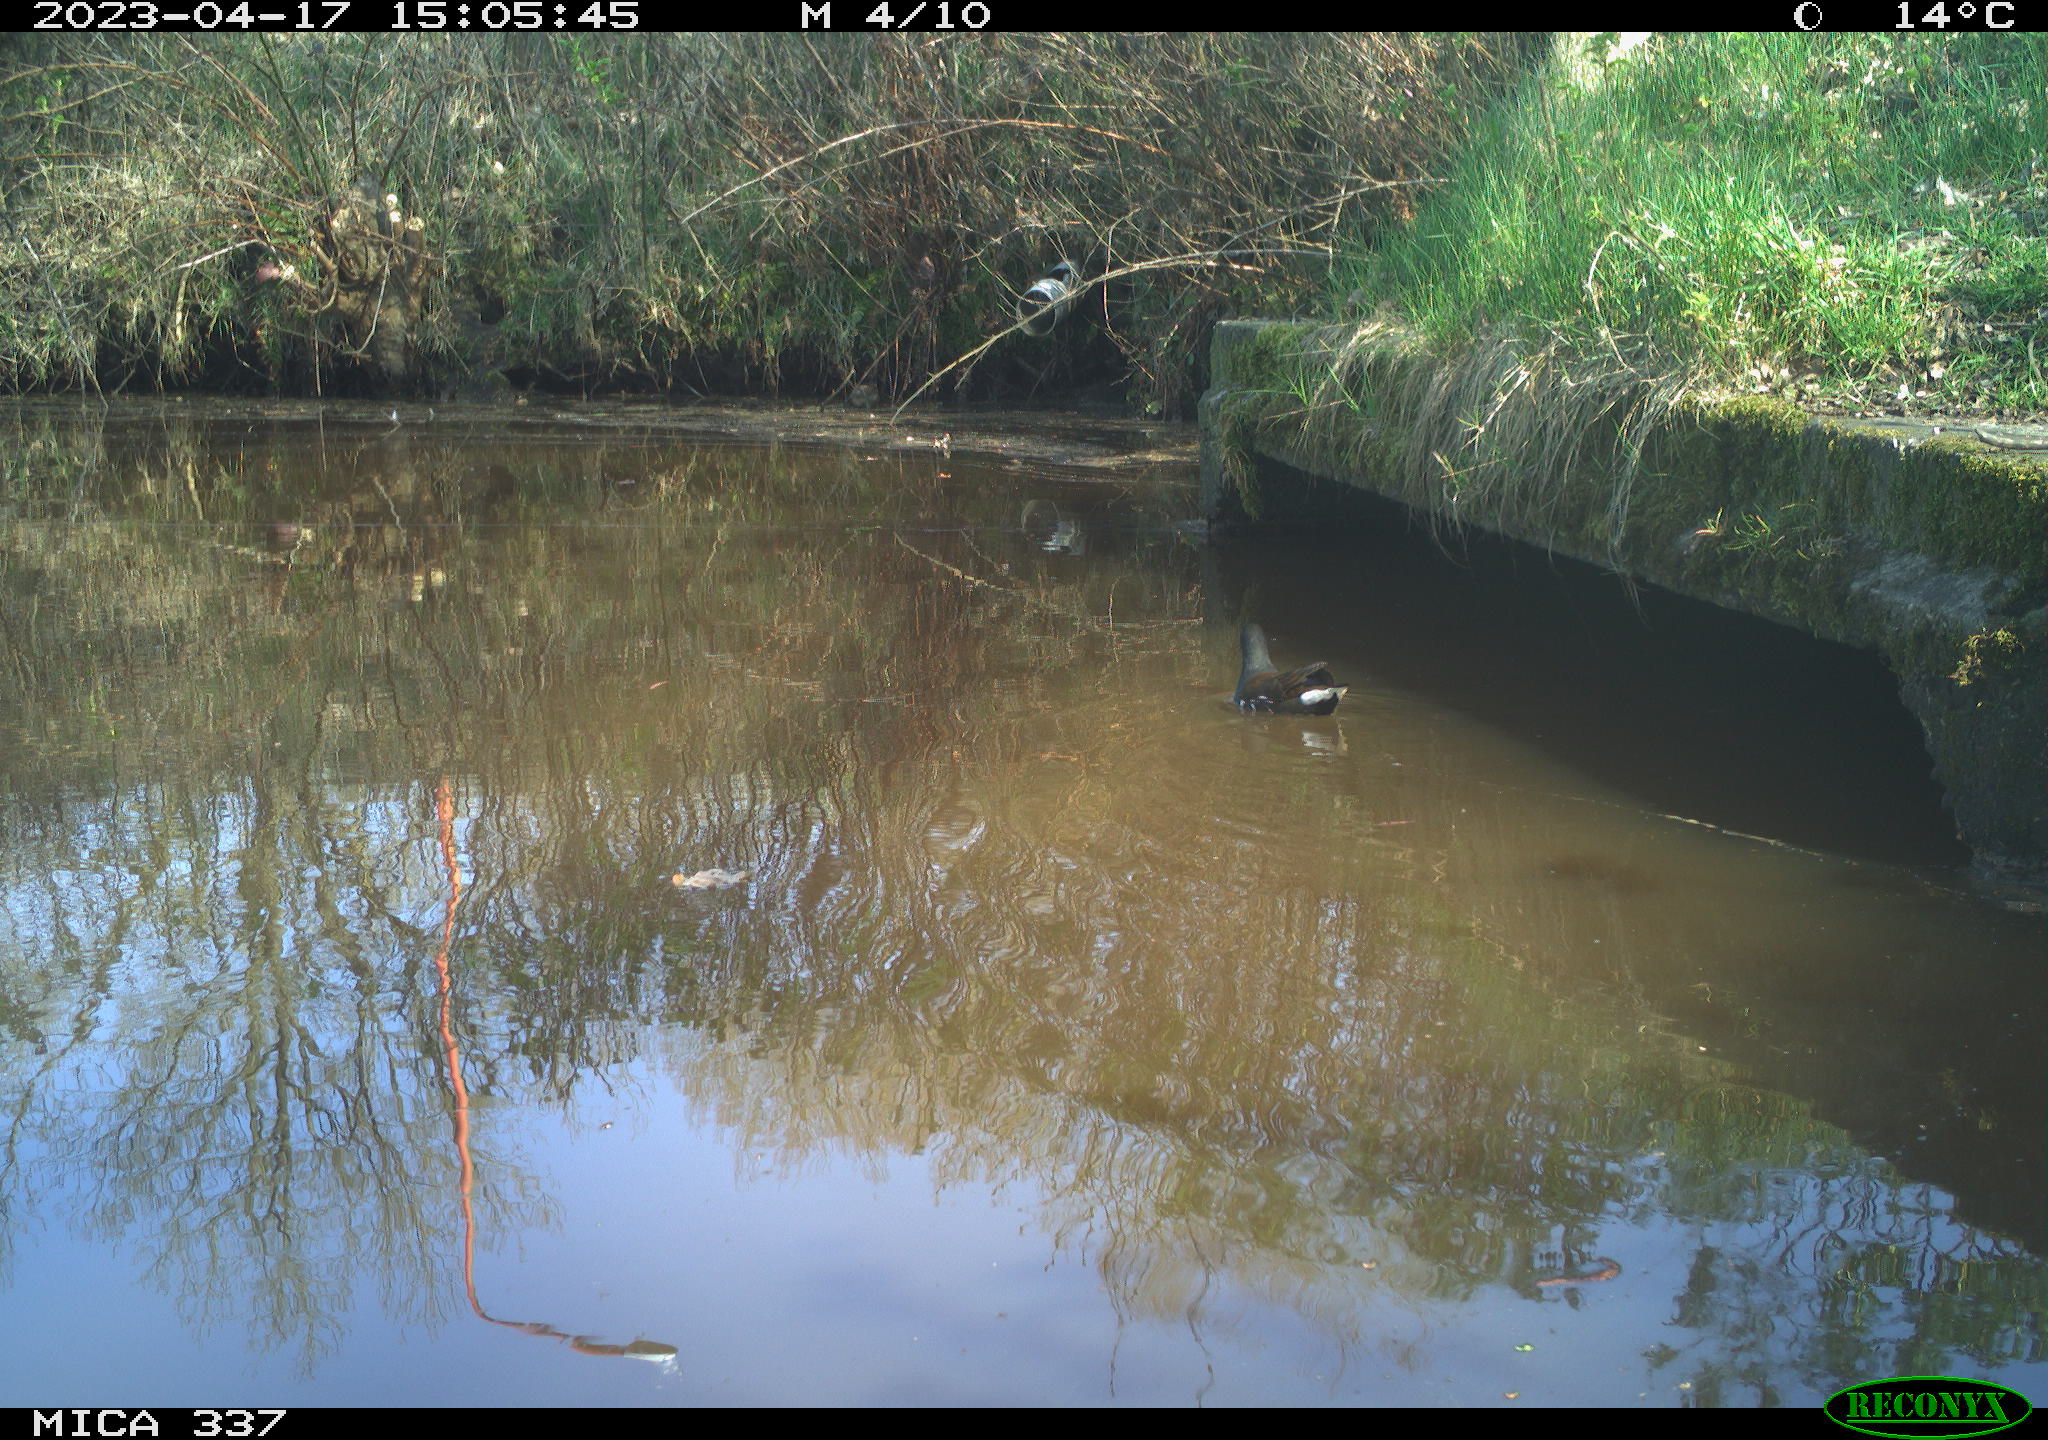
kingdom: Animalia
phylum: Chordata
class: Aves
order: Gruiformes
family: Rallidae
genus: Gallinula
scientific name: Gallinula chloropus
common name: Common moorhen
